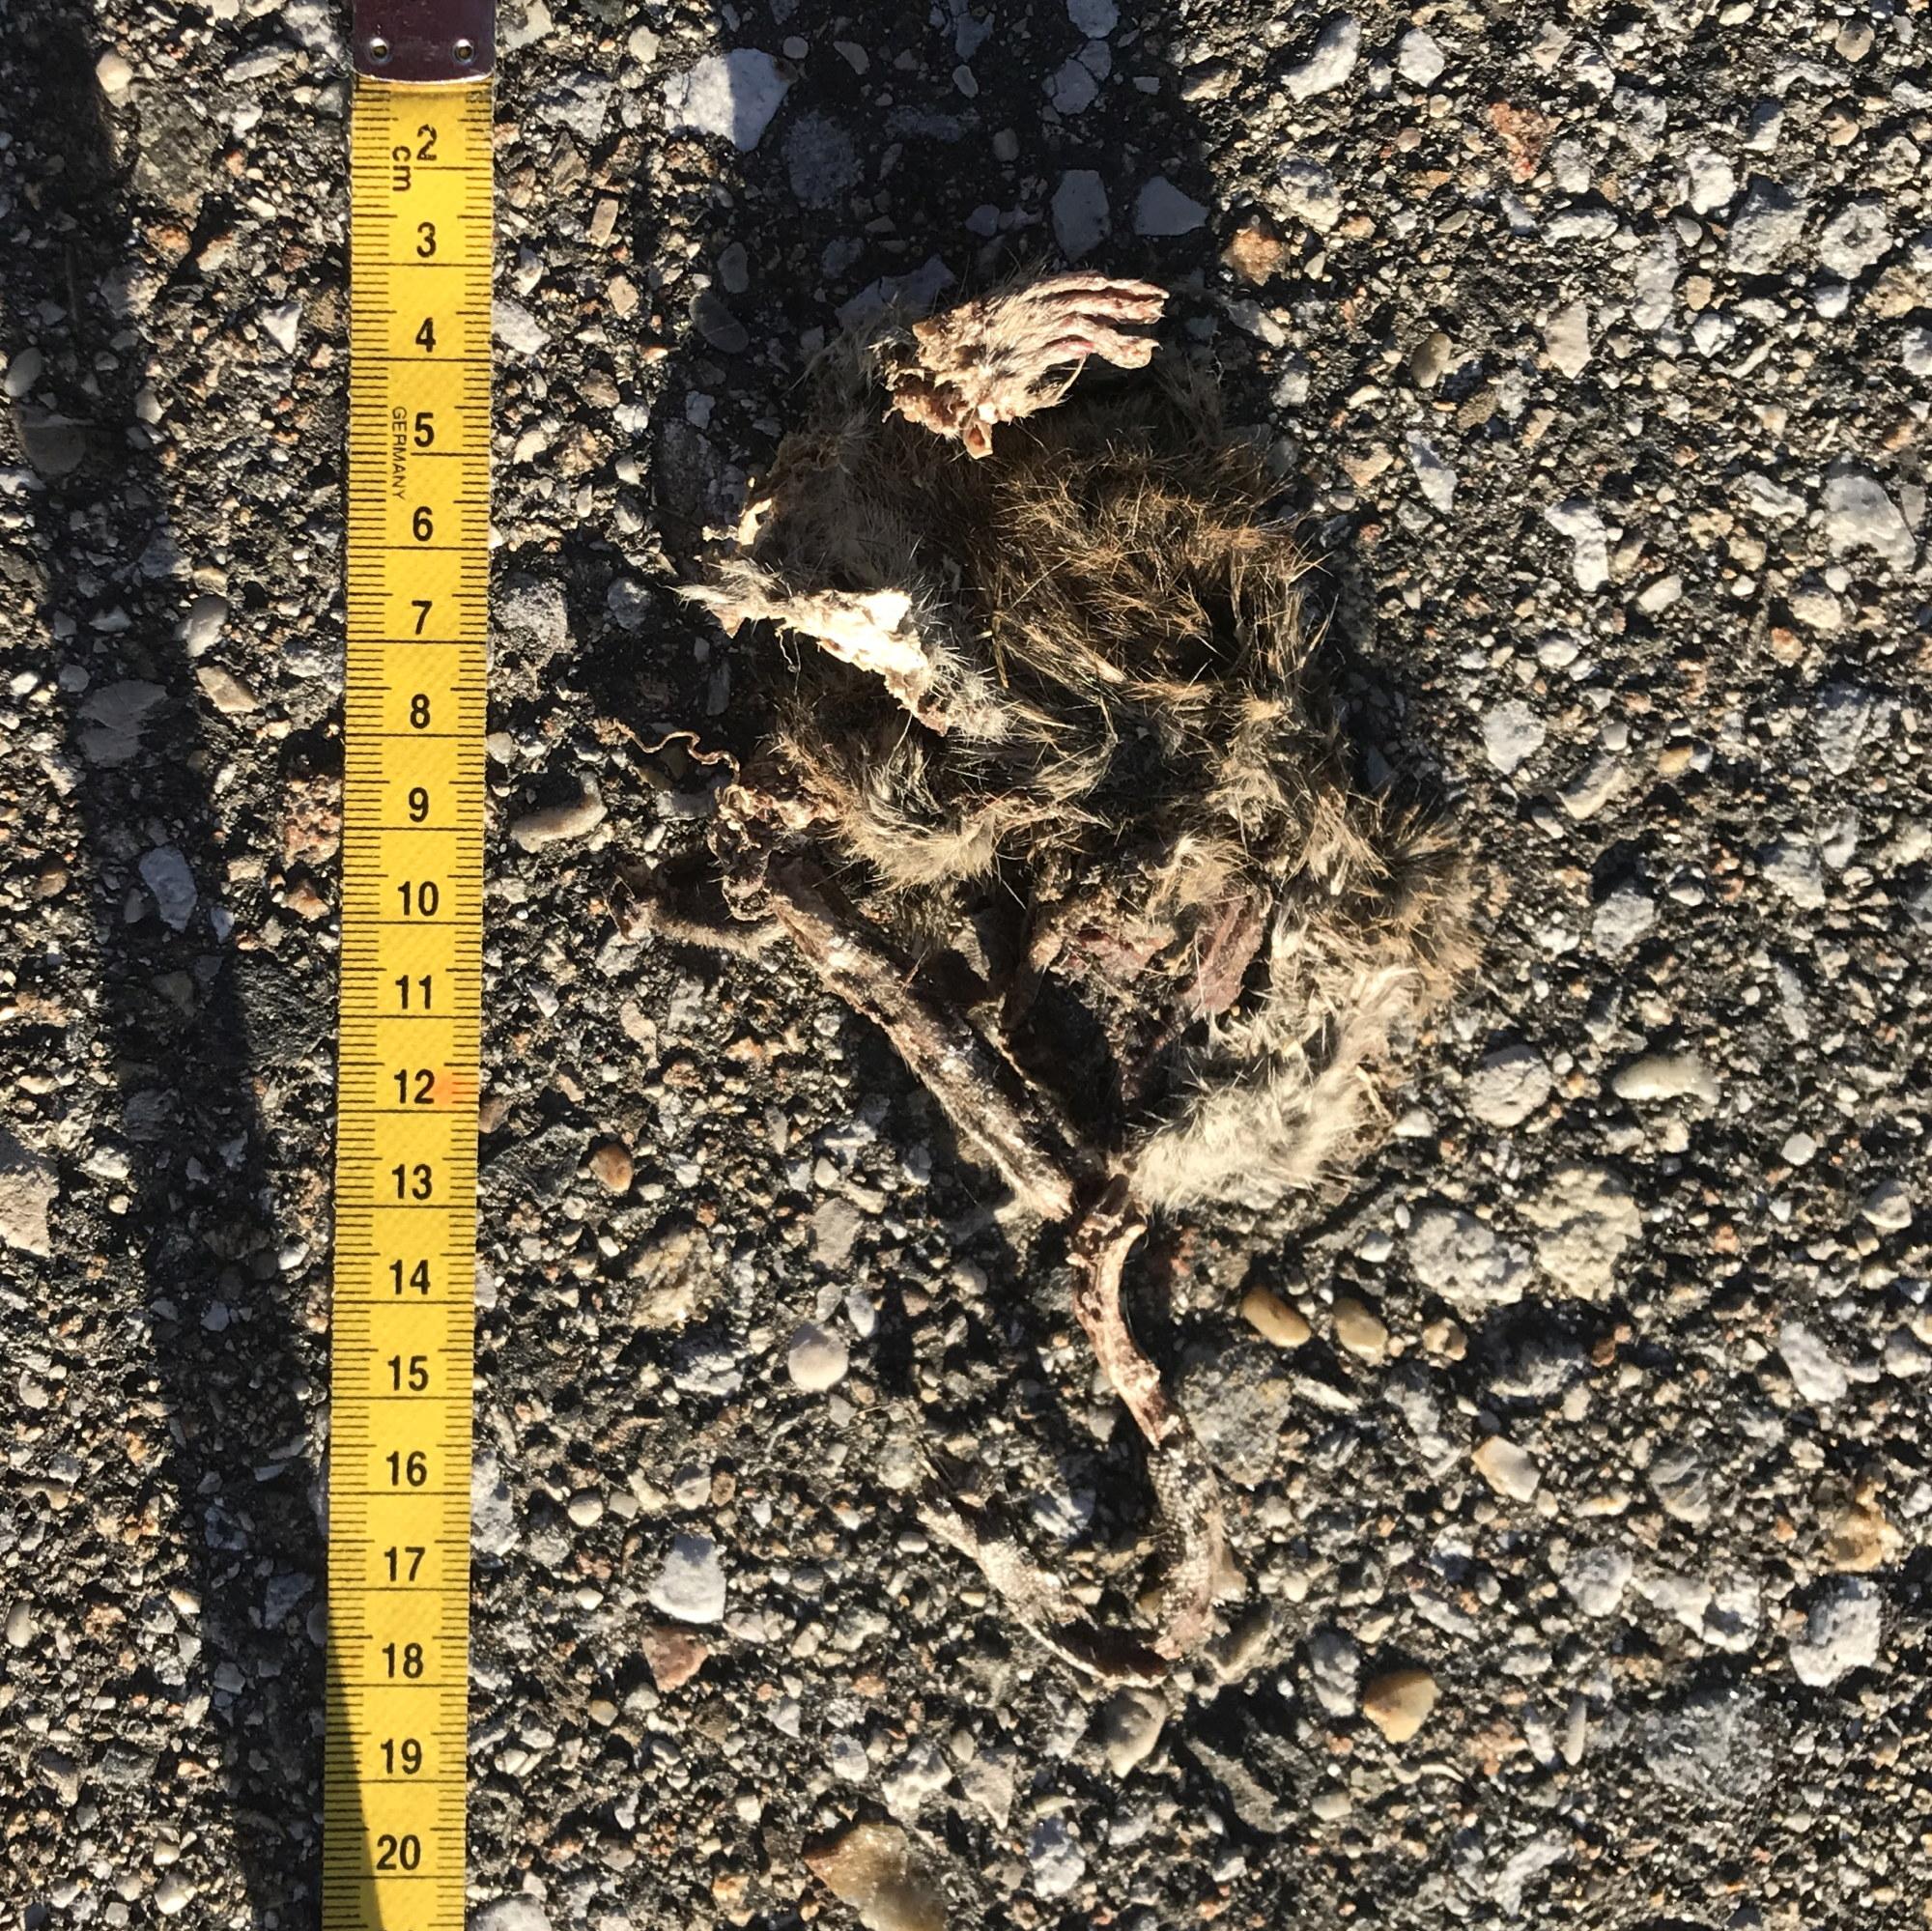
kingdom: Animalia
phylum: Chordata
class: Mammalia
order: Rodentia
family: Muridae
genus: Rattus
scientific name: Rattus
